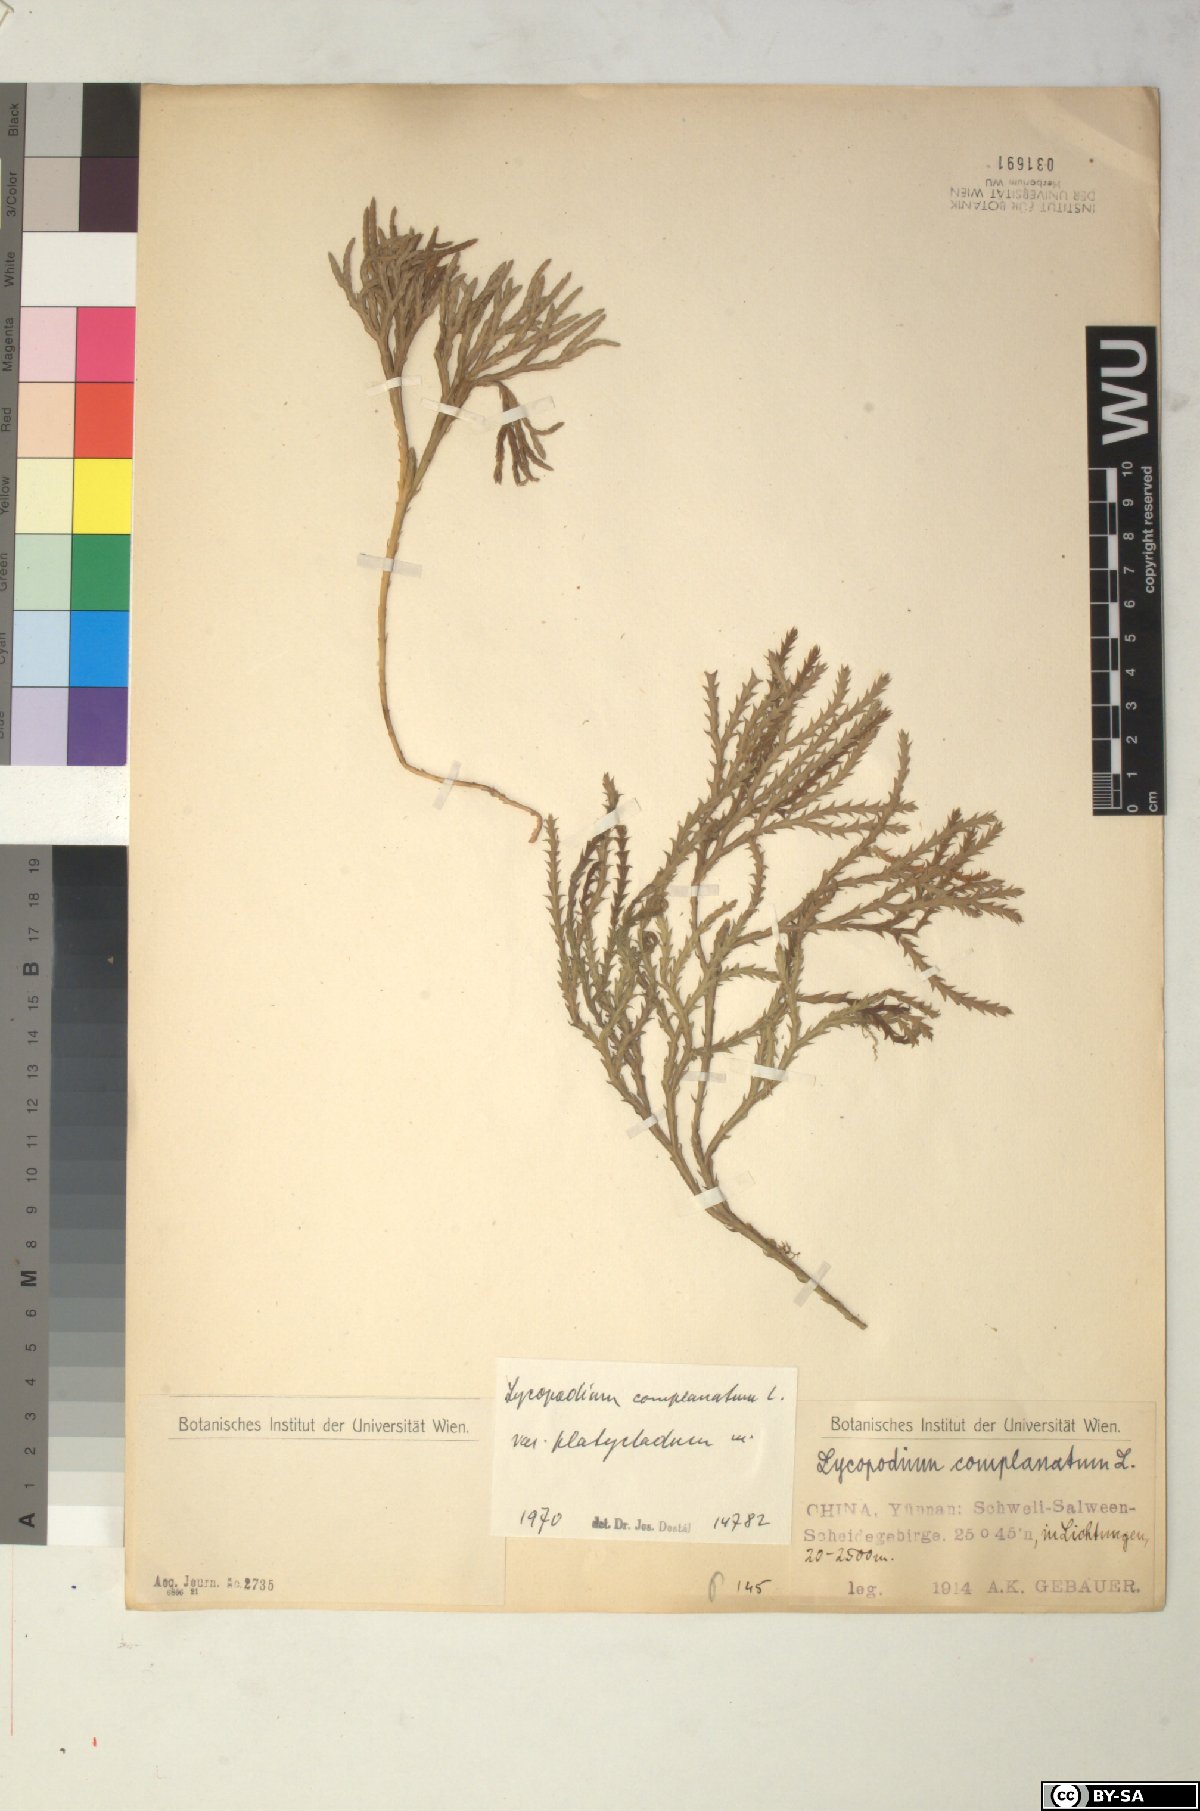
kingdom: Plantae
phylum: Tracheophyta
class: Lycopodiopsida
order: Lycopodiales
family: Lycopodiaceae
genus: Diphasiastrum
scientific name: Diphasiastrum complanatum
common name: Northern running-pine
